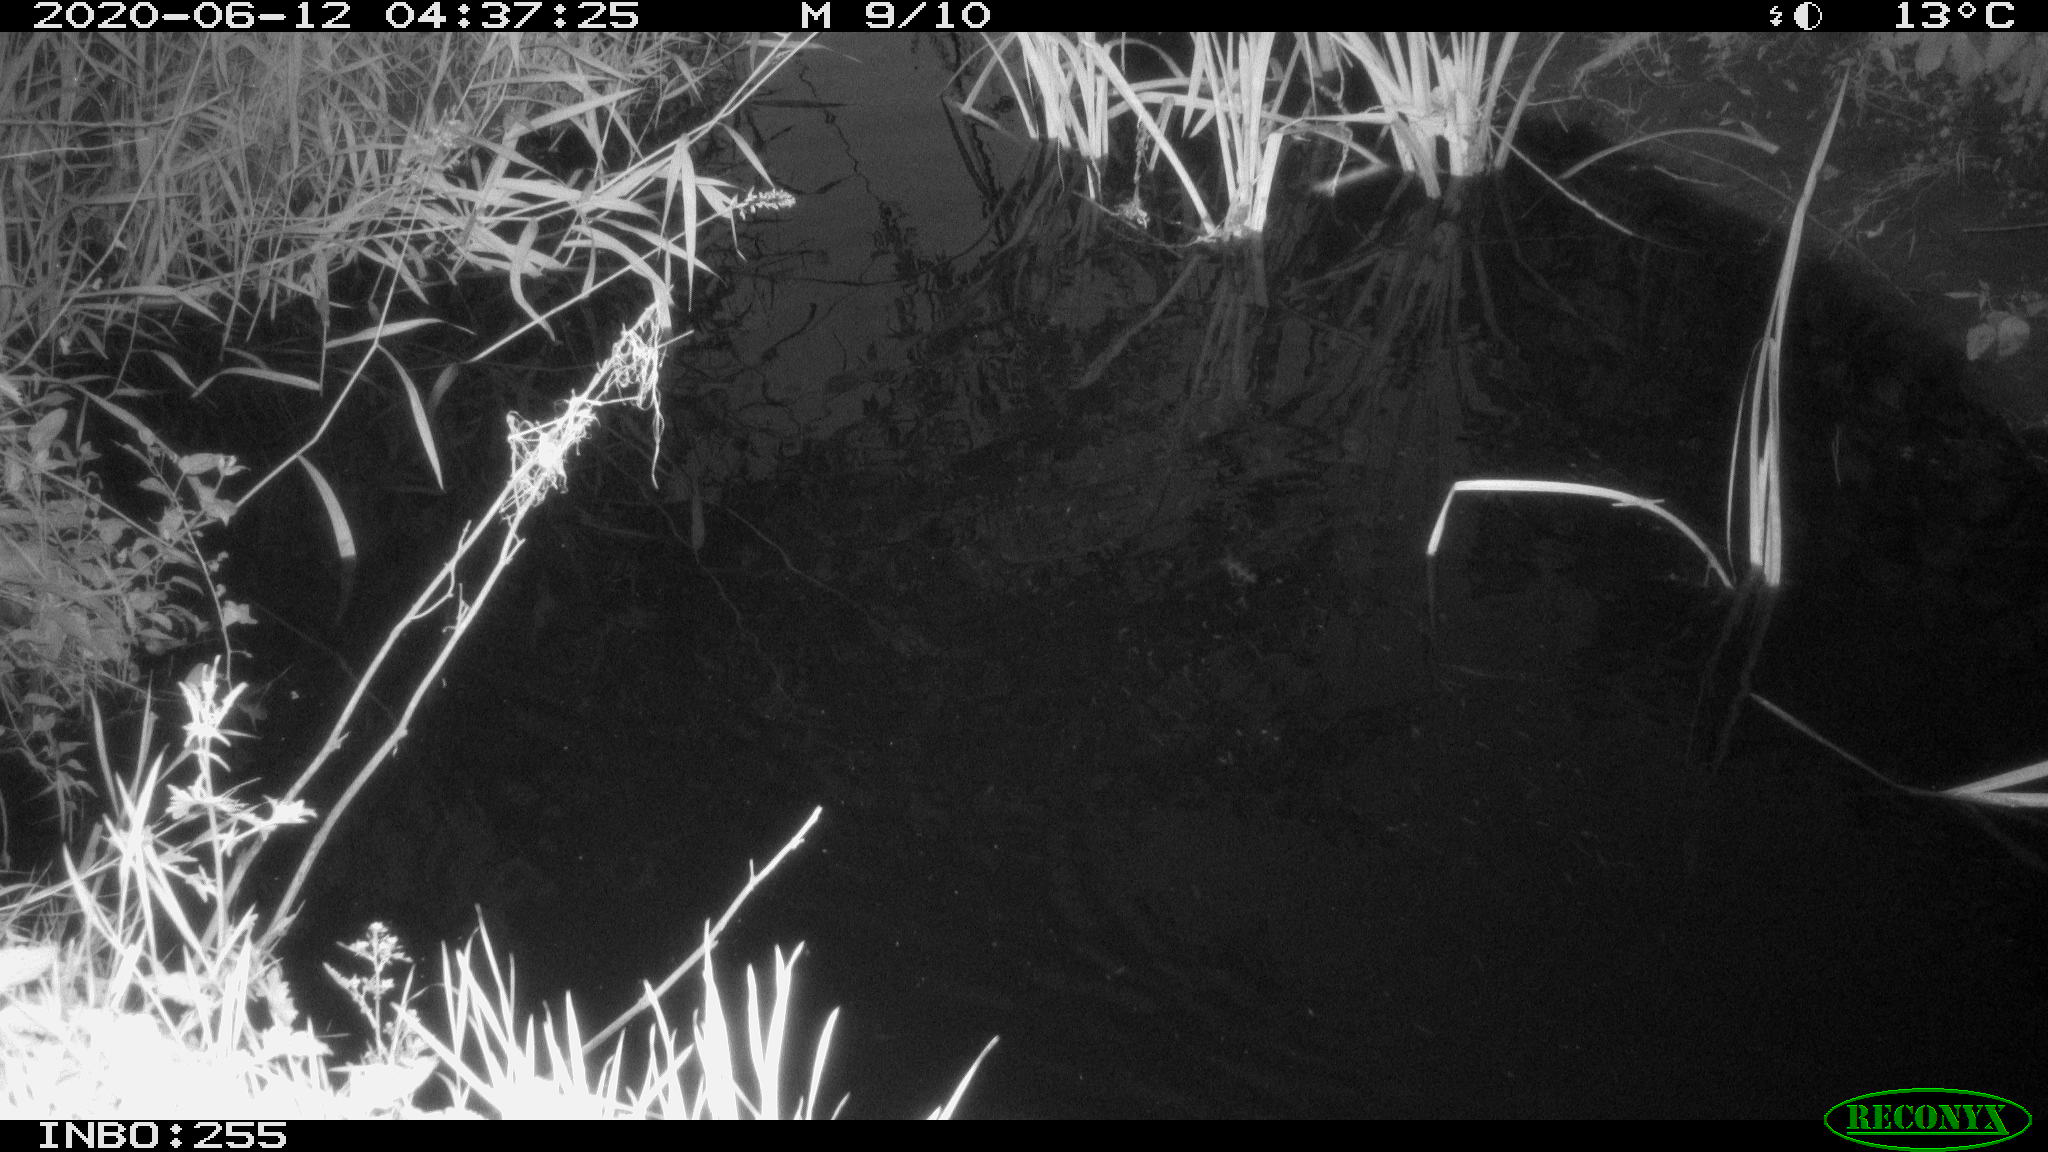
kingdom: Animalia
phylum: Chordata
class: Aves
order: Anseriformes
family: Anatidae
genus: Anas
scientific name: Anas platyrhynchos
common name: Mallard
